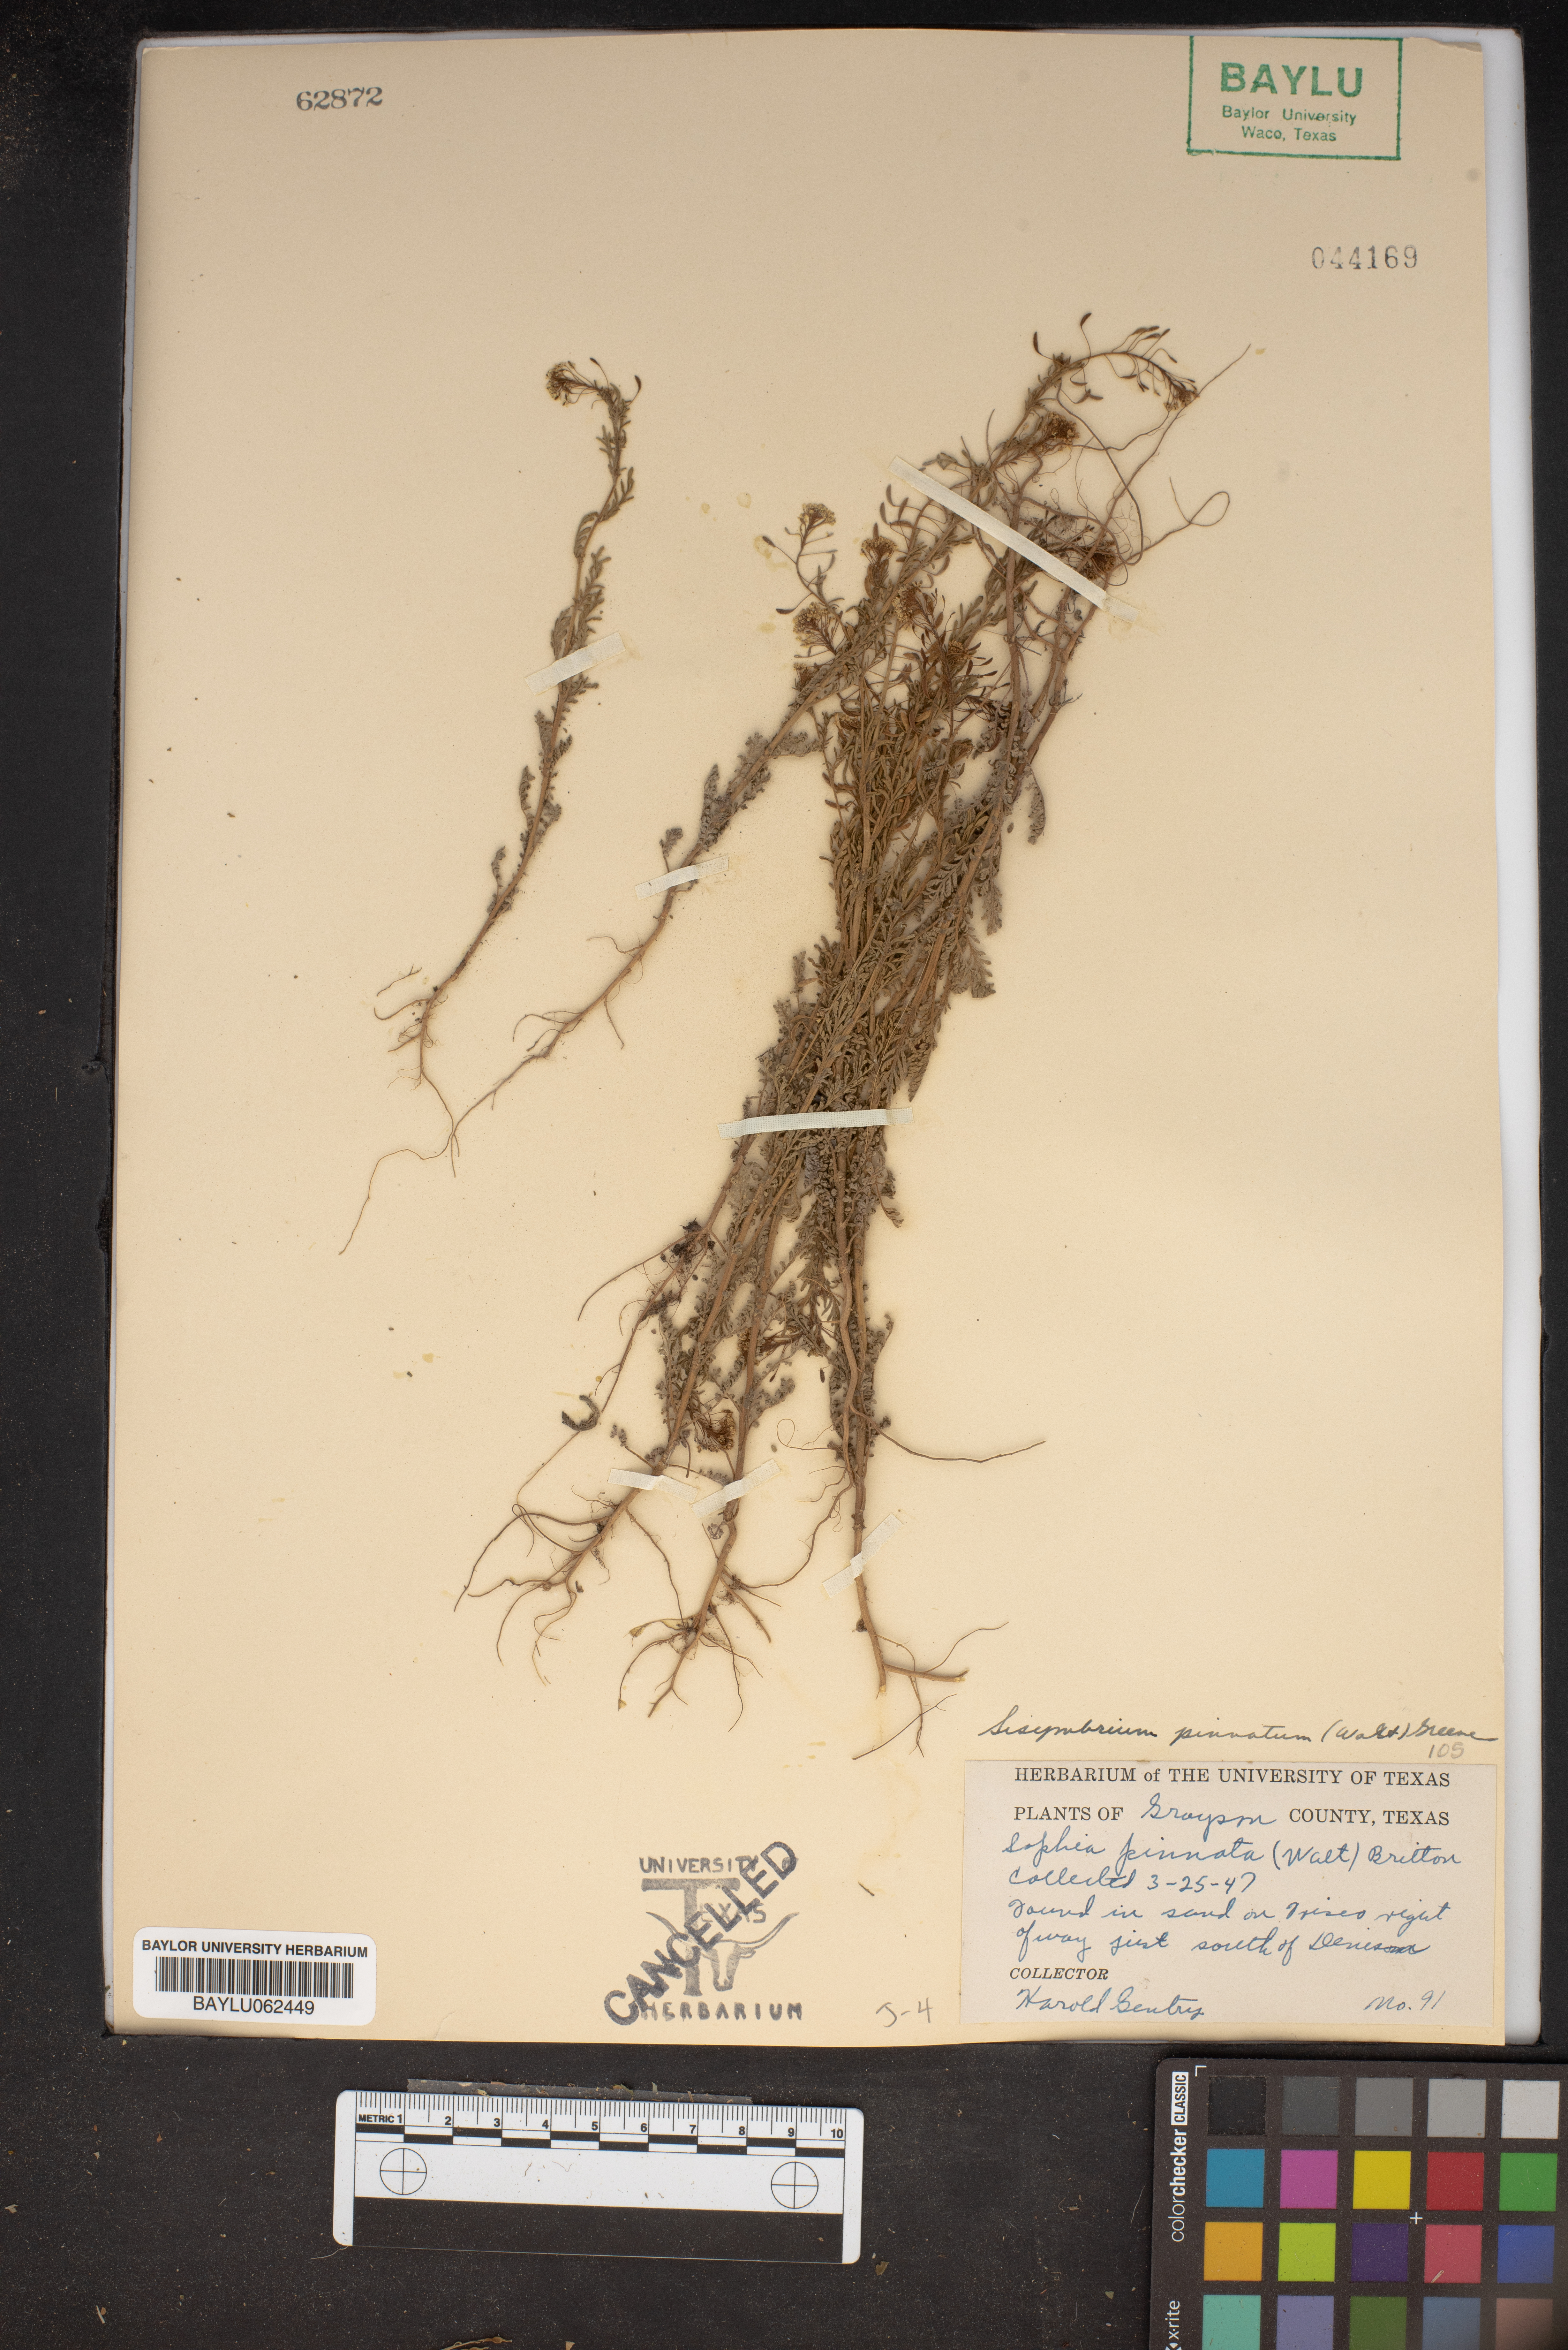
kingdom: Plantae
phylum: Tracheophyta
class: Magnoliopsida
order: Brassicales
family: Brassicaceae
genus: Sisymbrium
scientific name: Sisymbrium pinnatum
